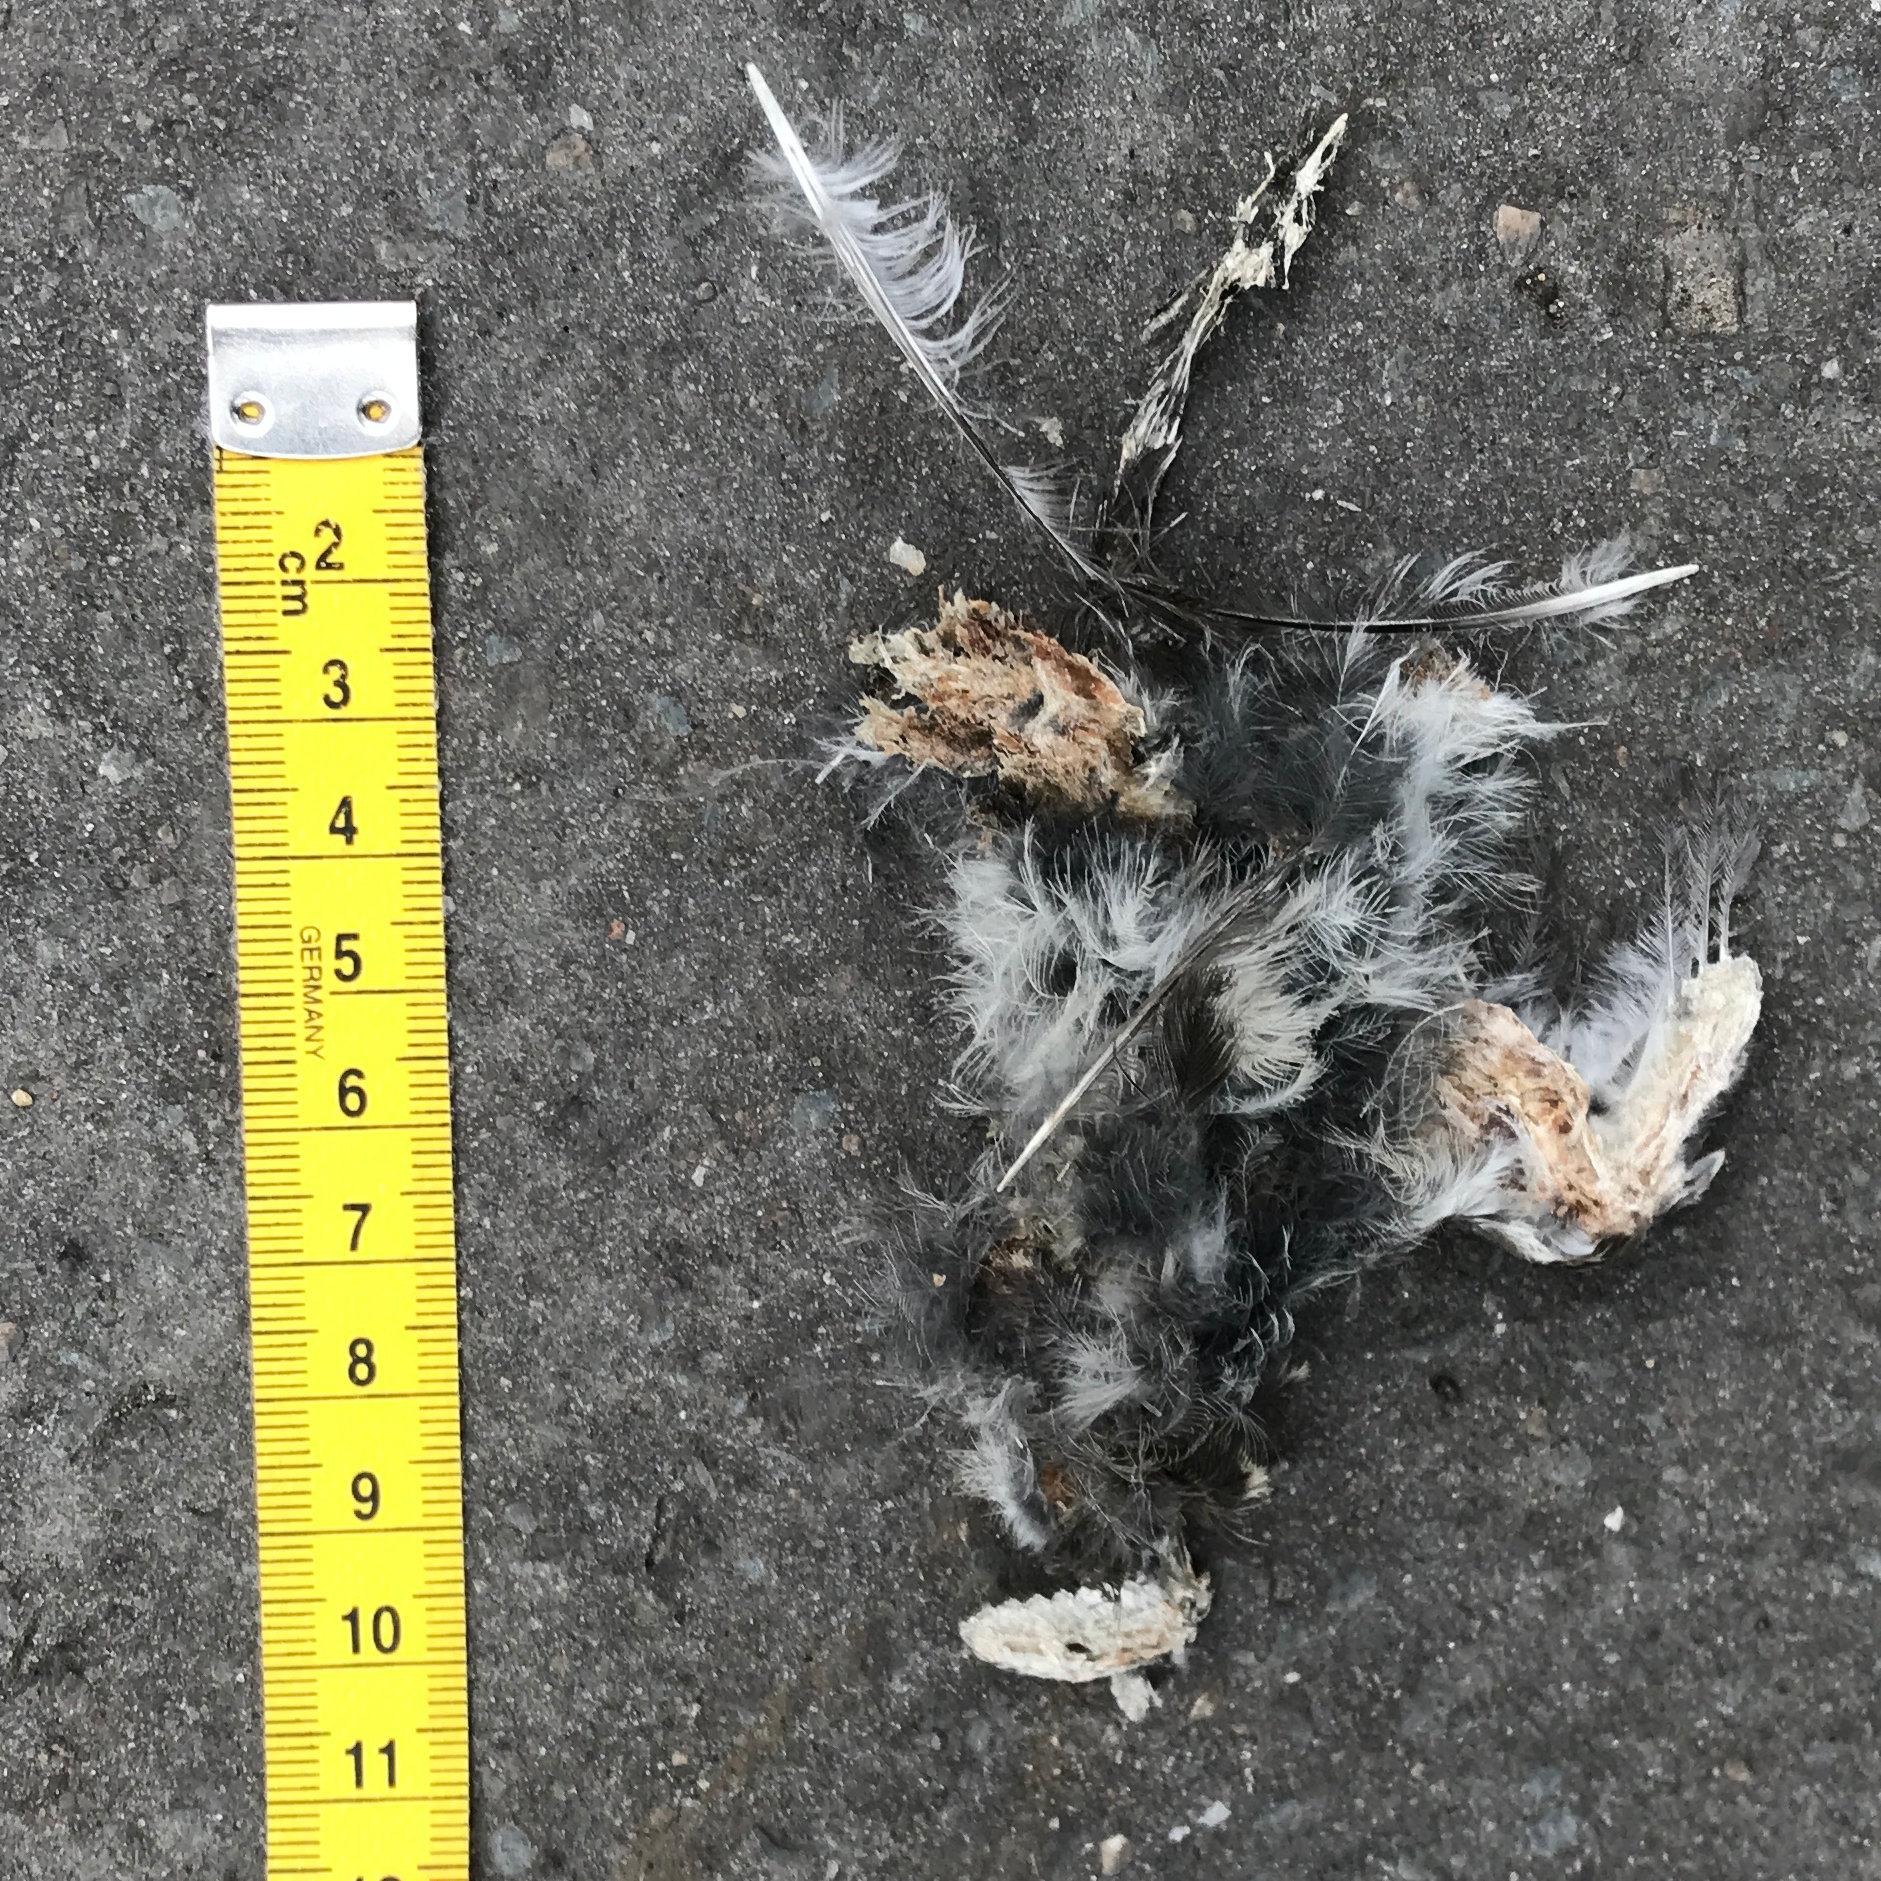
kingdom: Animalia
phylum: Chordata
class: Aves
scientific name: Aves
